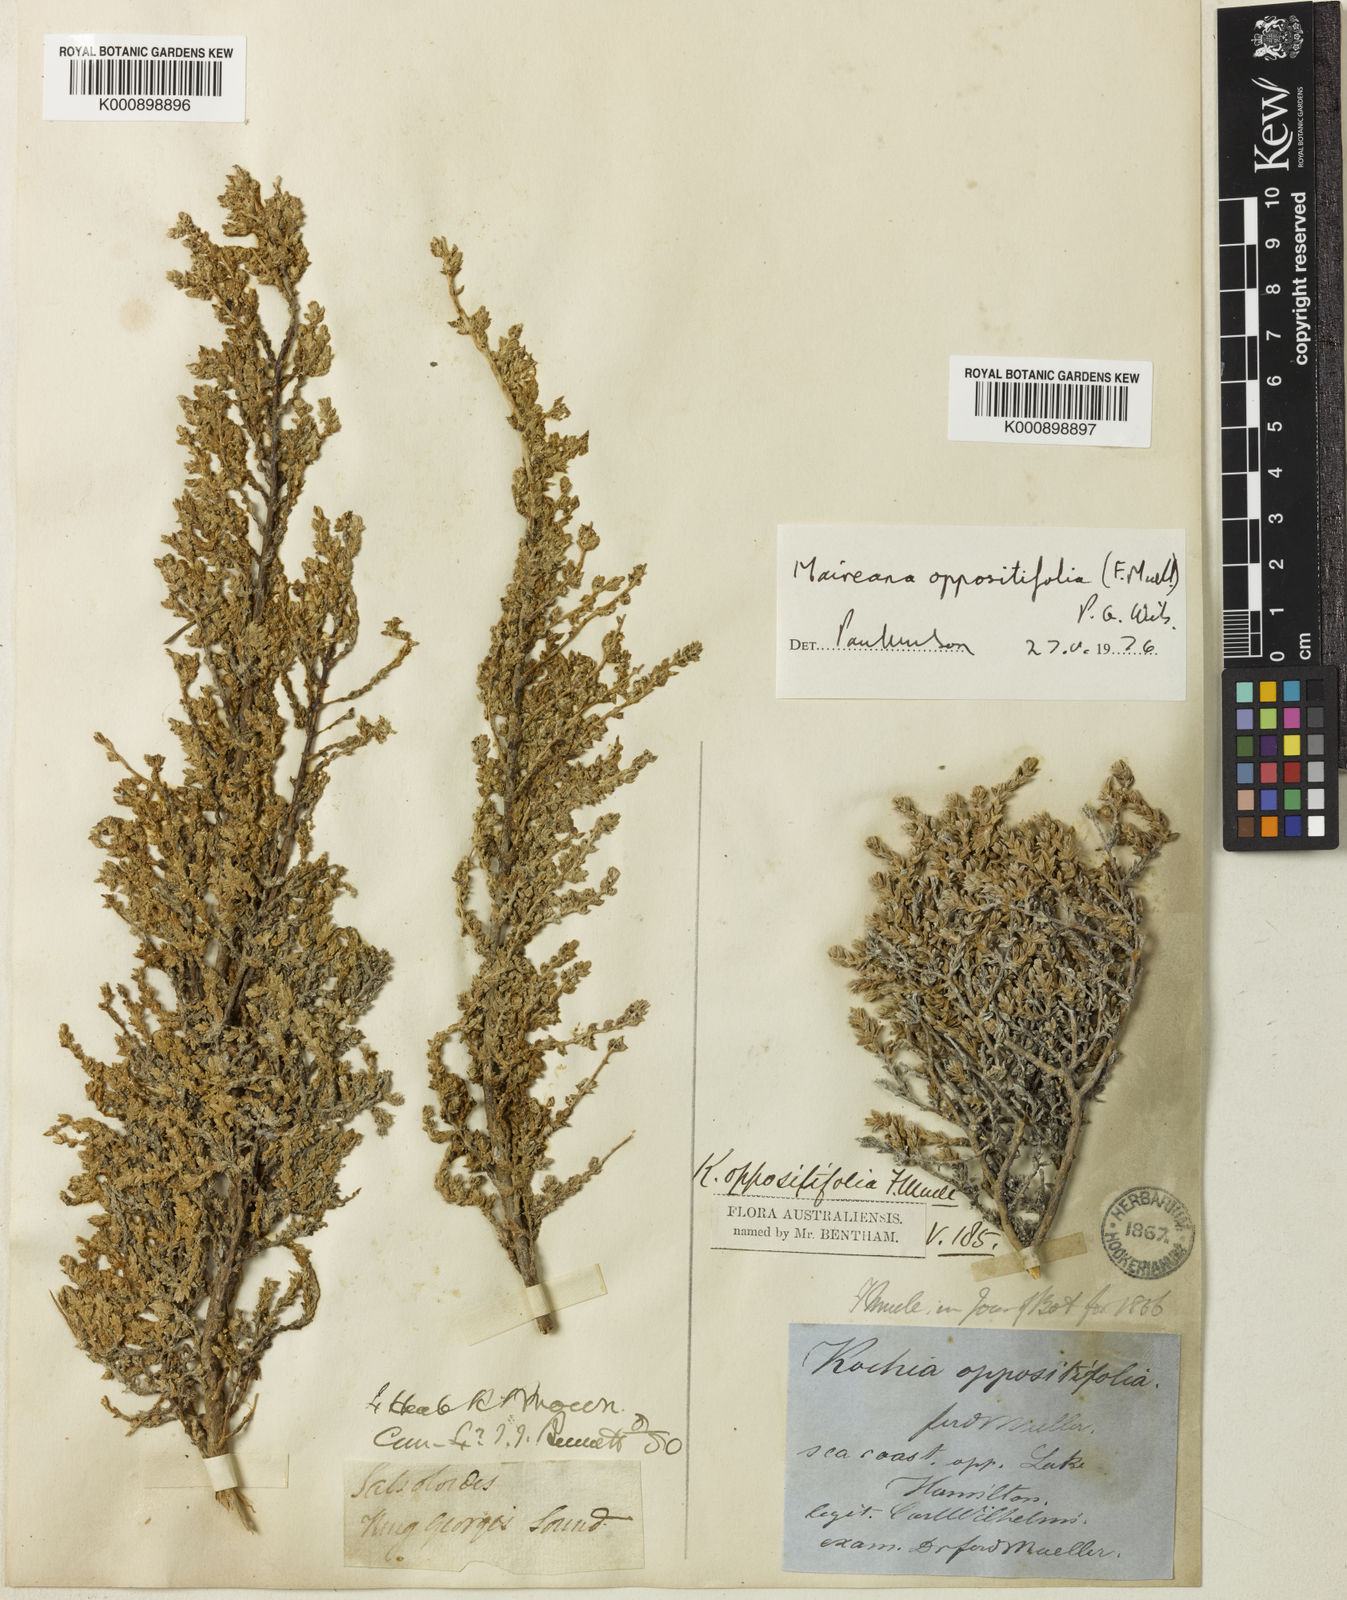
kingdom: Plantae
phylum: Tracheophyta
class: Magnoliopsida
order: Caryophyllales
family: Amaranthaceae
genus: Maireana
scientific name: Maireana oppositifolia
